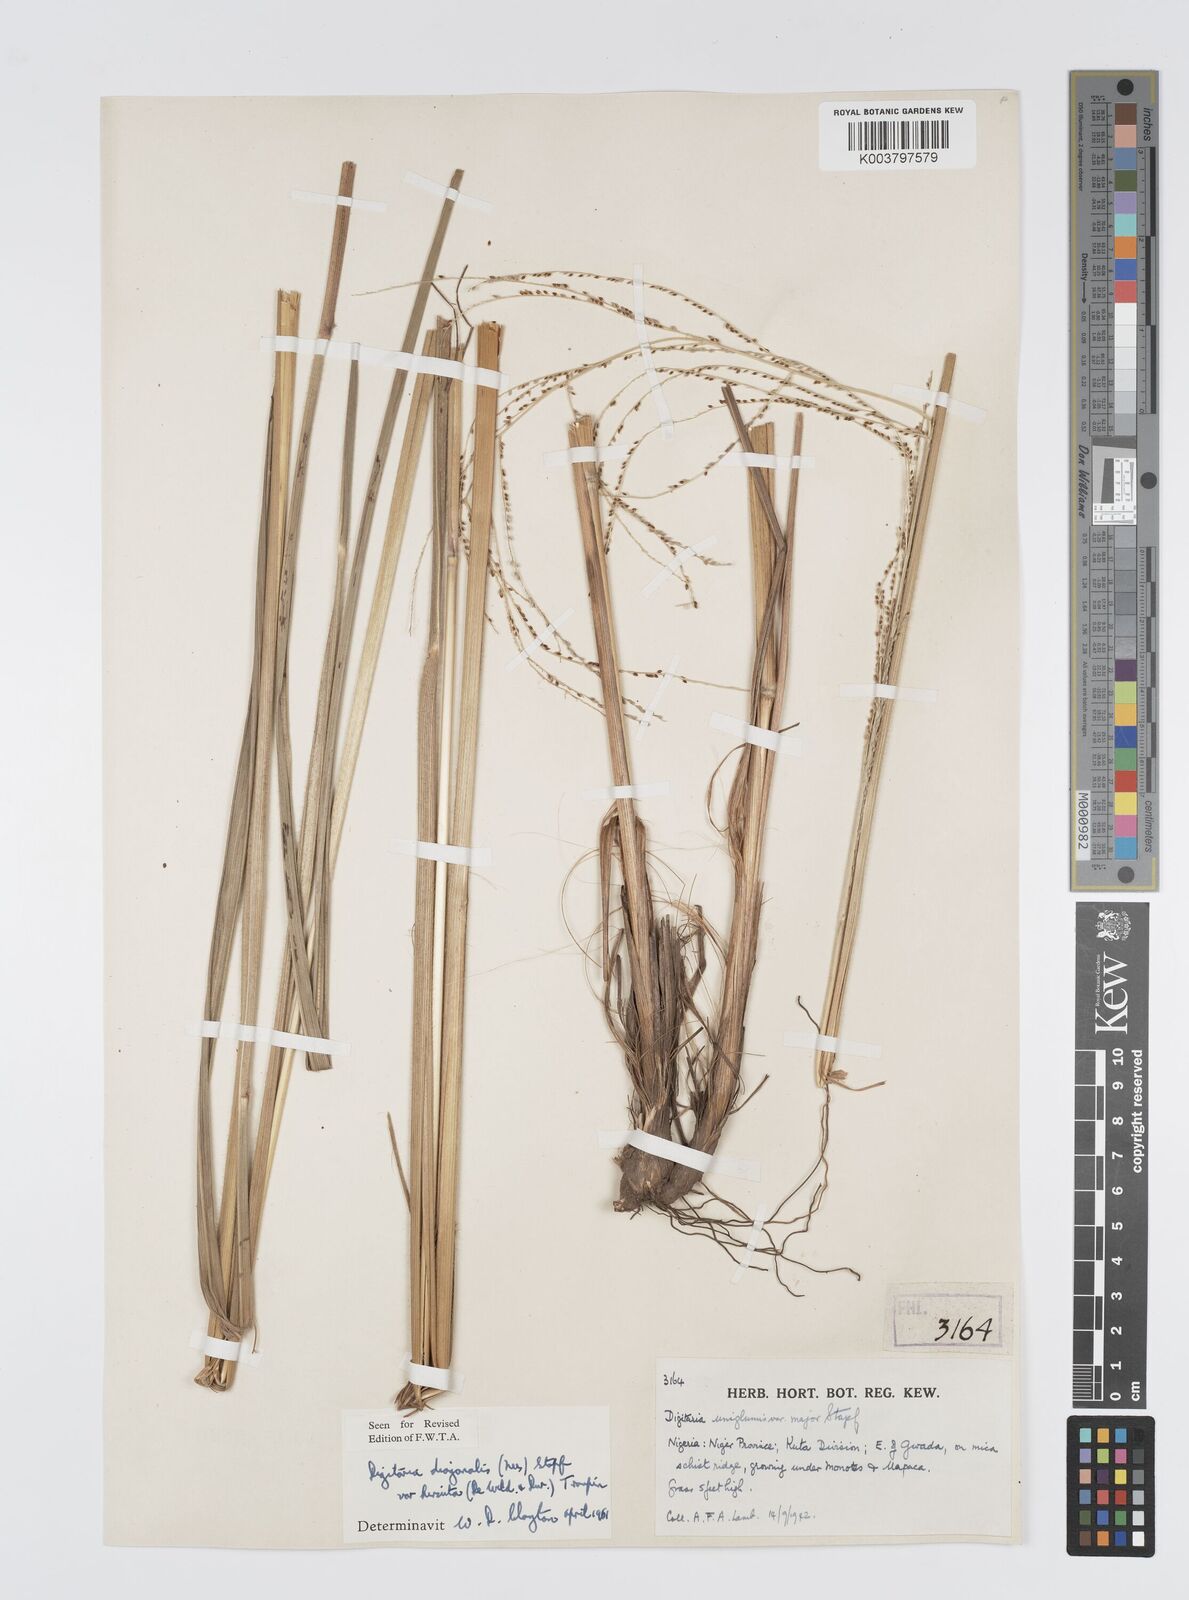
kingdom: Plantae
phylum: Tracheophyta
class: Liliopsida
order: Poales
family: Poaceae
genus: Digitaria
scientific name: Digitaria diagonalis
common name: Brown-seed finger grass
